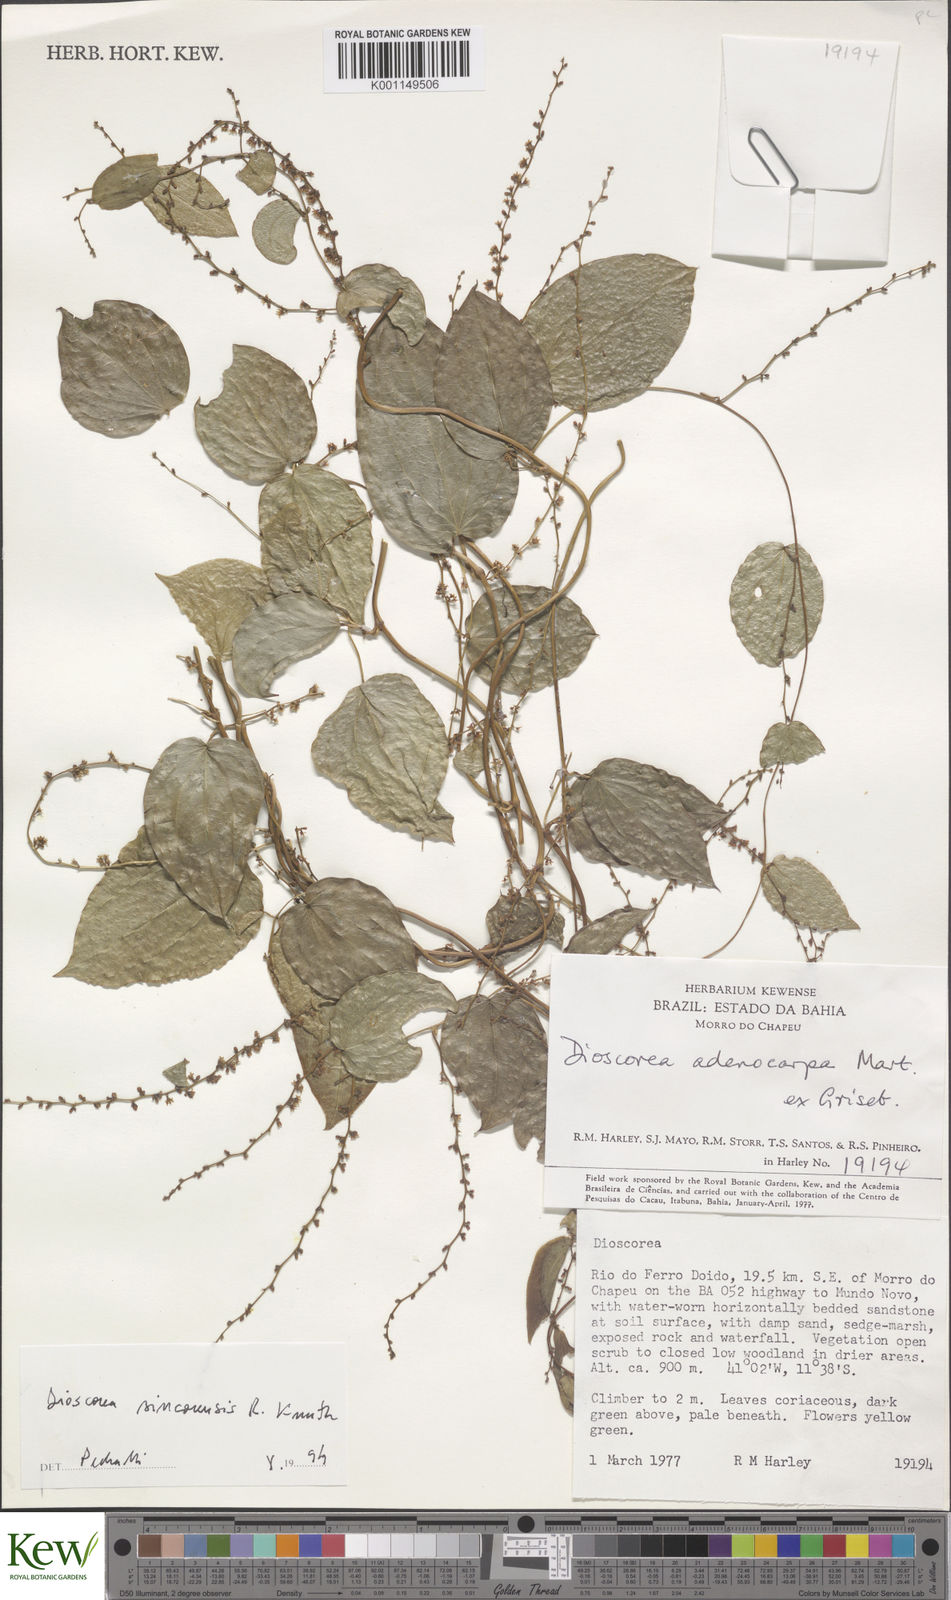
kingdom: Plantae
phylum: Tracheophyta
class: Liliopsida
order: Dioscoreales
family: Dioscoreaceae
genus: Dioscorea
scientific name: Dioscorea sincorensis
